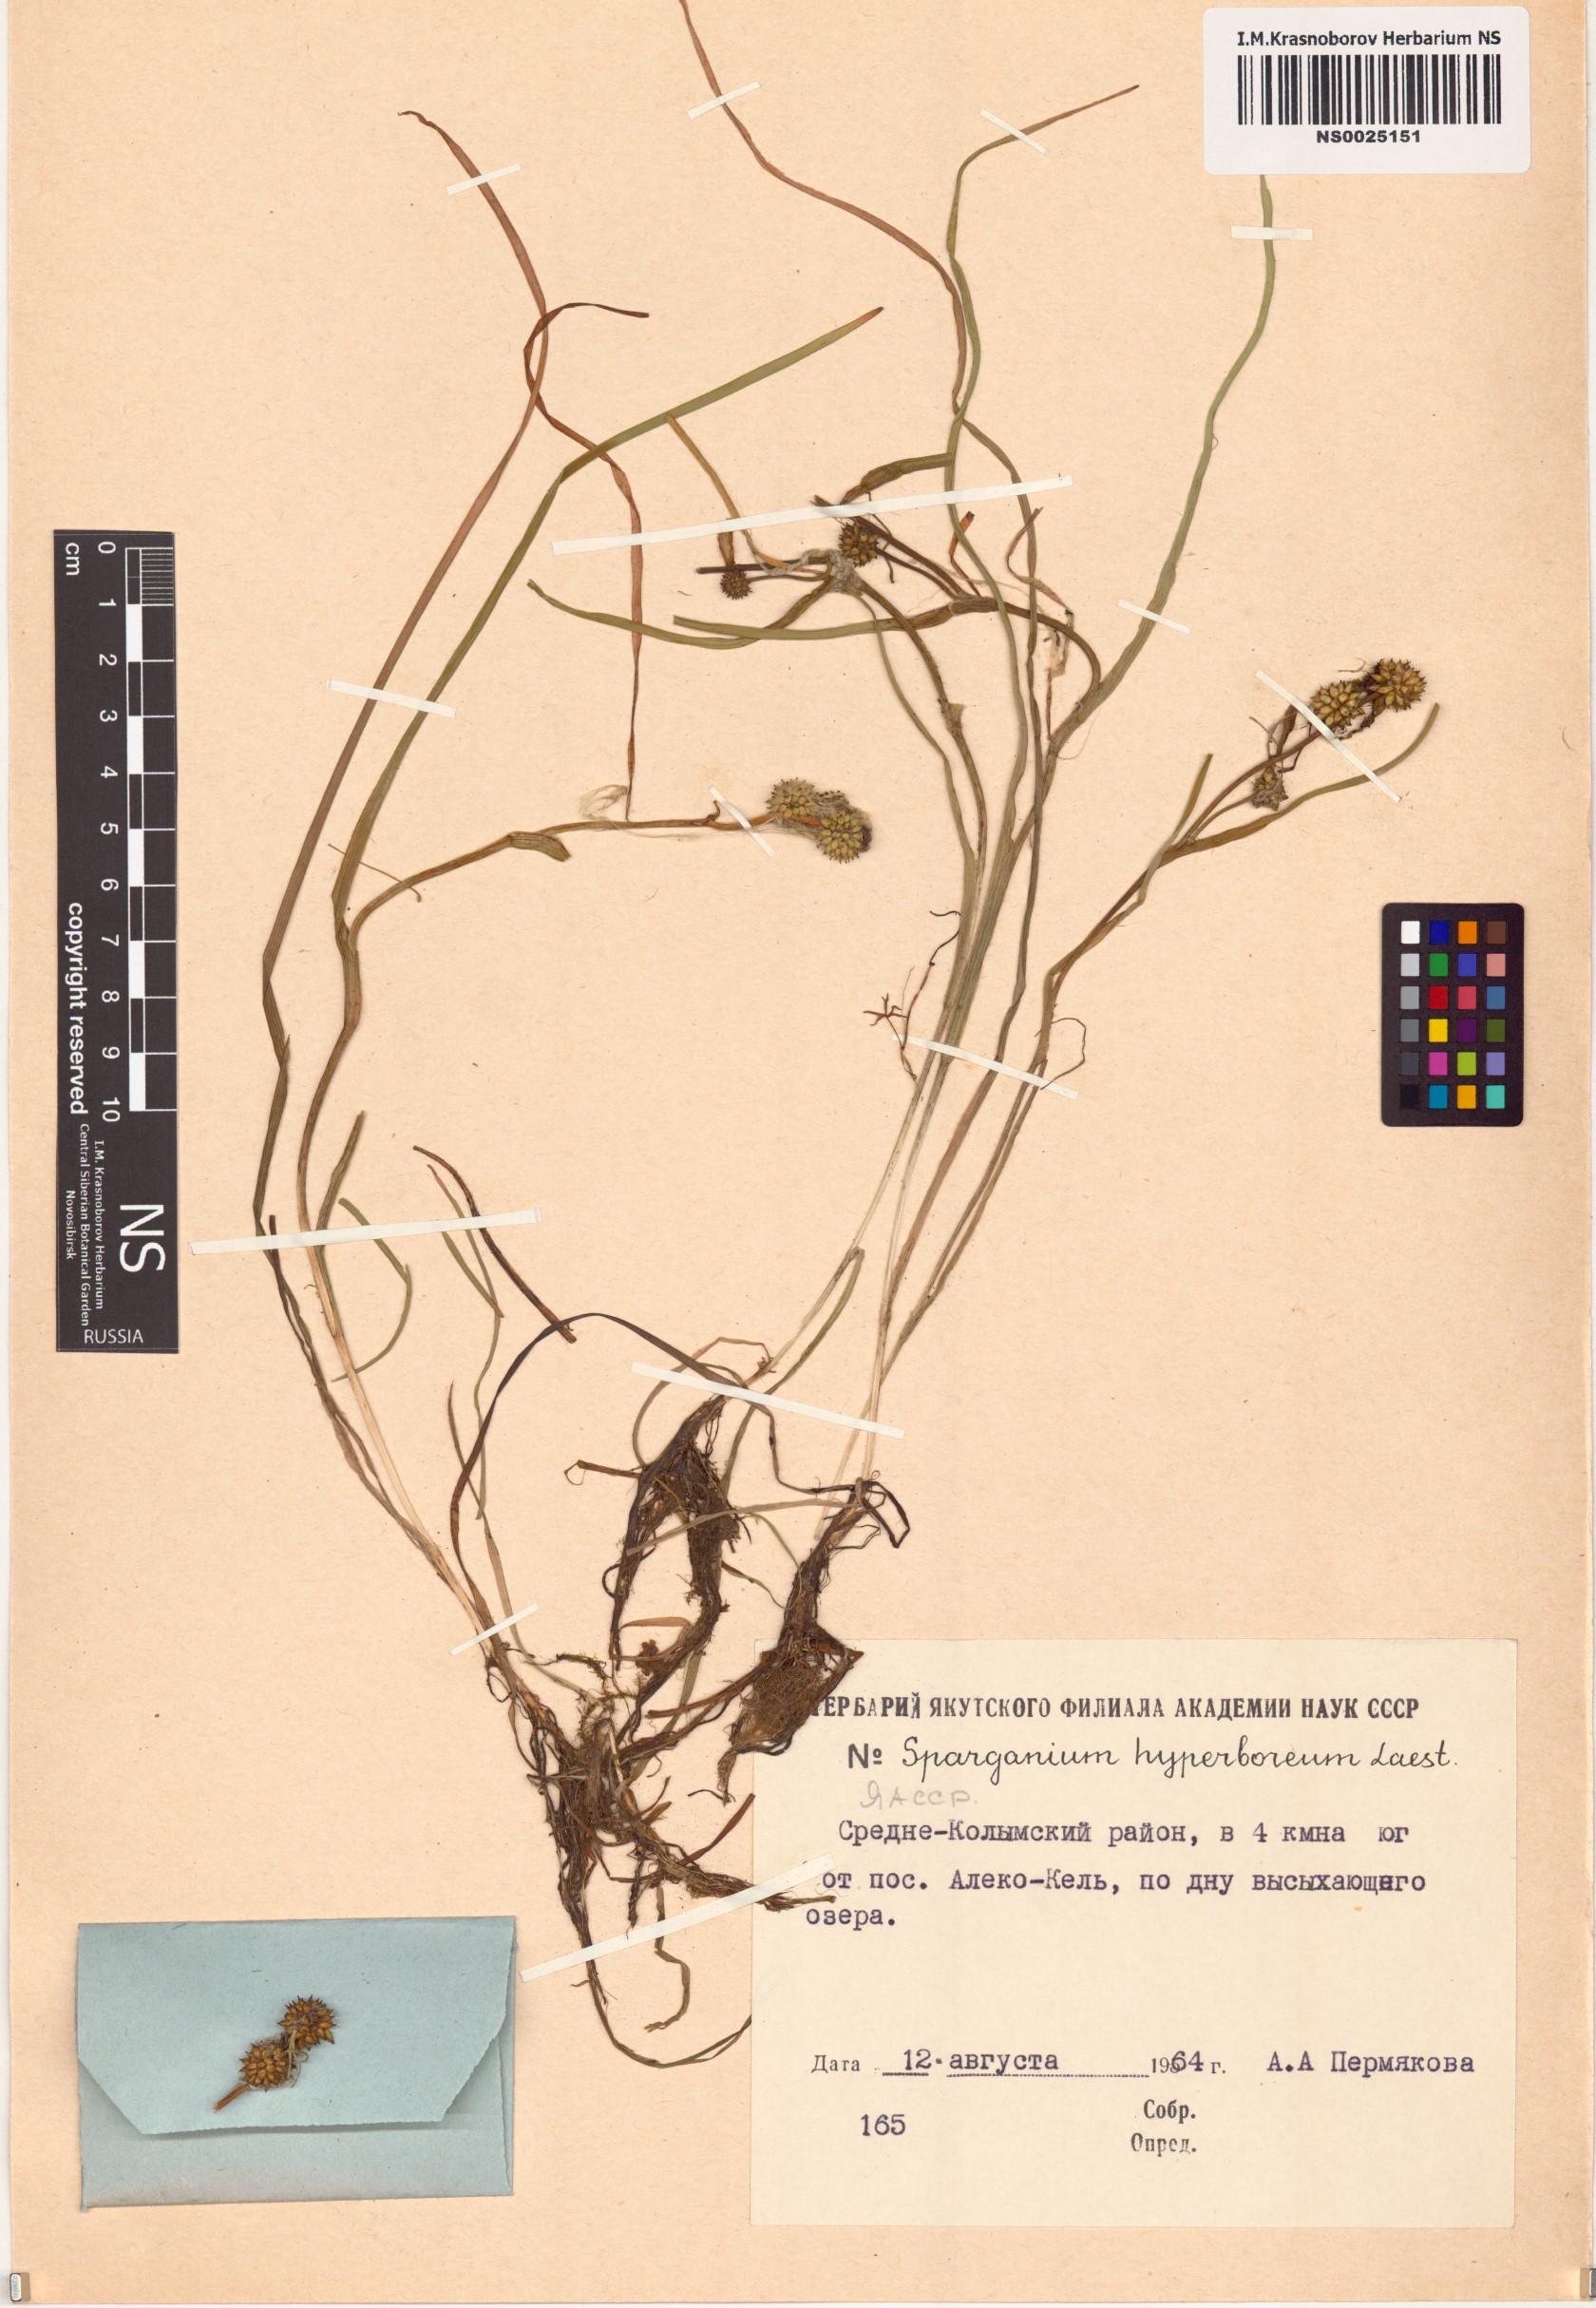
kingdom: Plantae
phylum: Tracheophyta
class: Liliopsida
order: Poales
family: Typhaceae
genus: Sparganium
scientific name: Sparganium hyperboreum
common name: Arctic burreed
